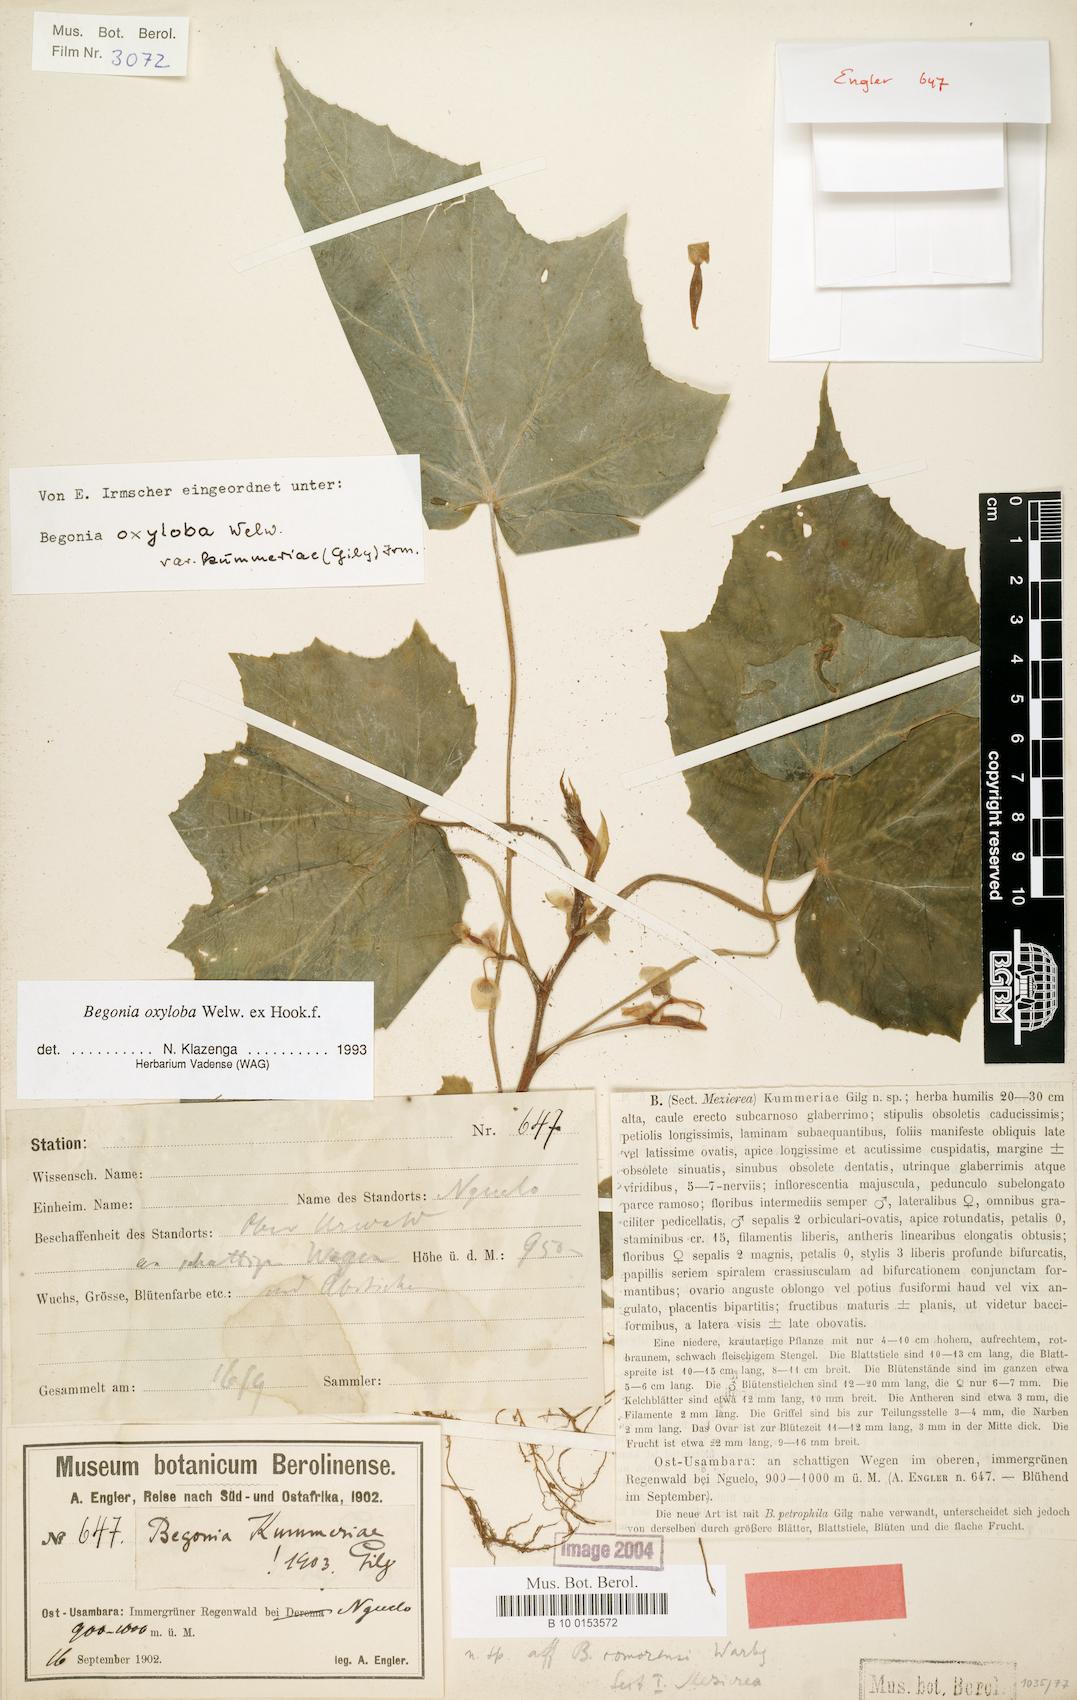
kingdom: Plantae
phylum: Tracheophyta
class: Magnoliopsida
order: Cucurbitales
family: Begoniaceae
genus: Begonia
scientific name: Begonia oxyloba
